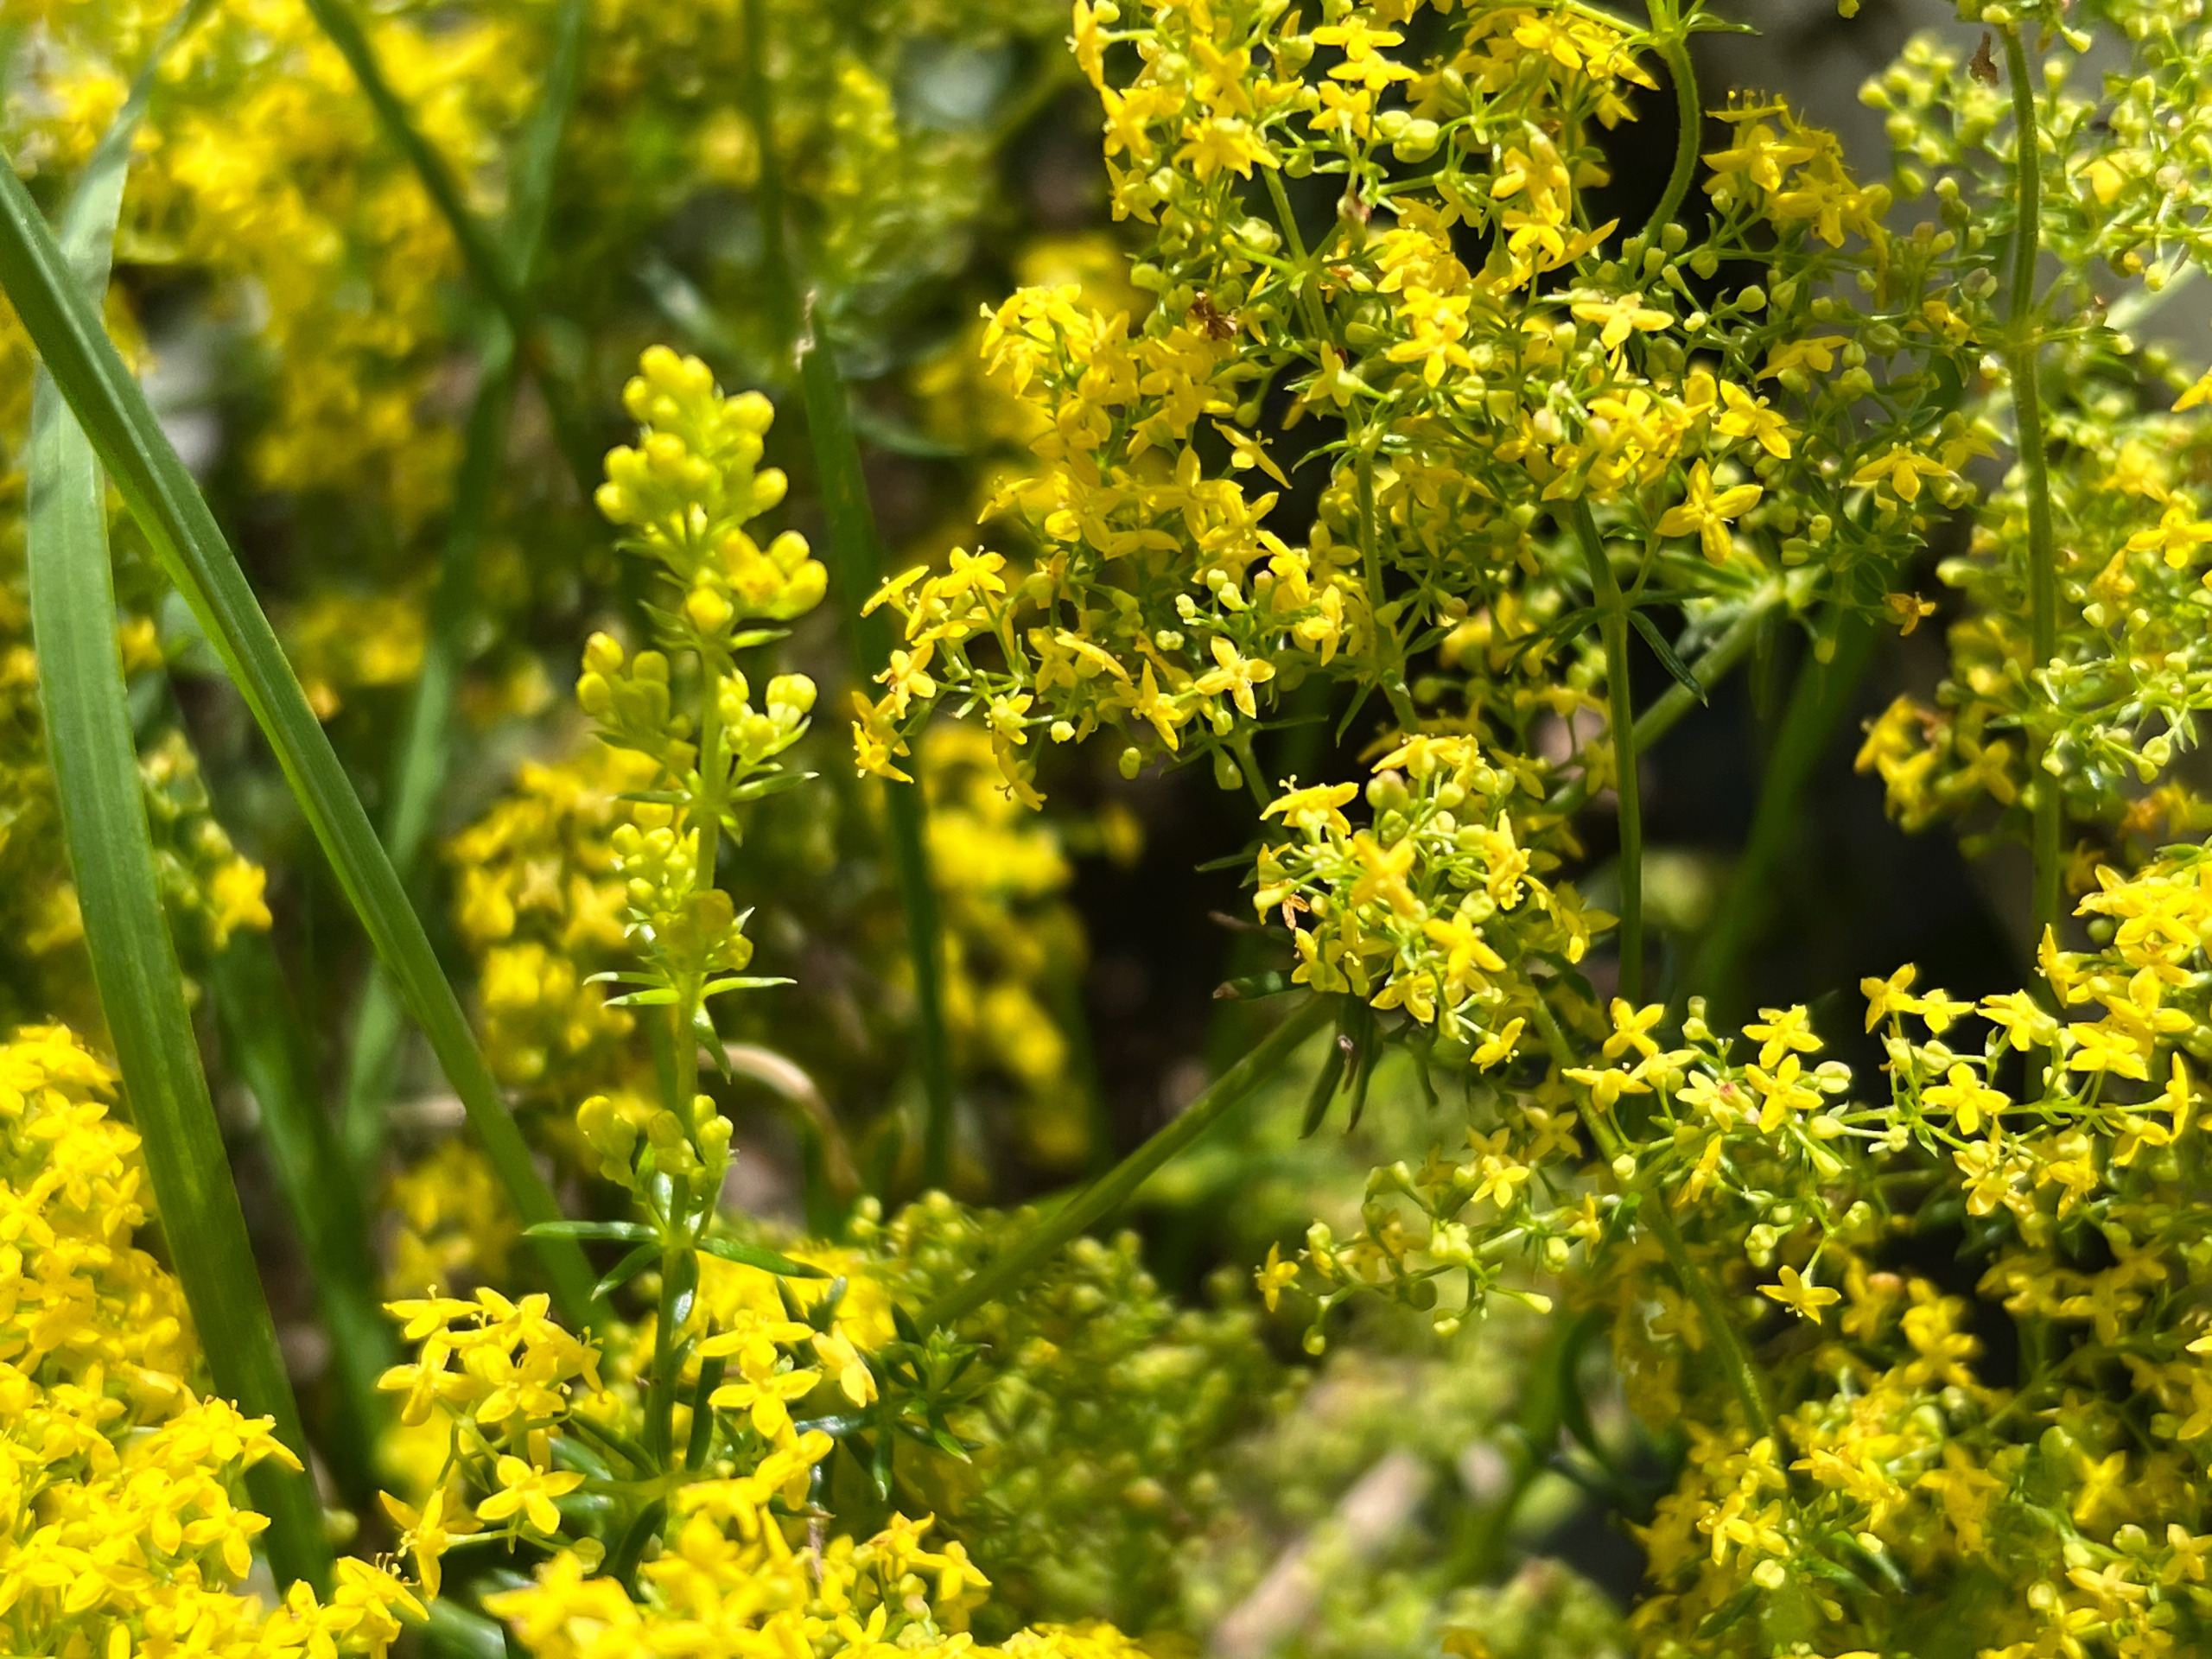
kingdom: Plantae
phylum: Tracheophyta
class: Magnoliopsida
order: Gentianales
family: Rubiaceae
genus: Galium
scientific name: Galium verum
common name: Gul snerre
